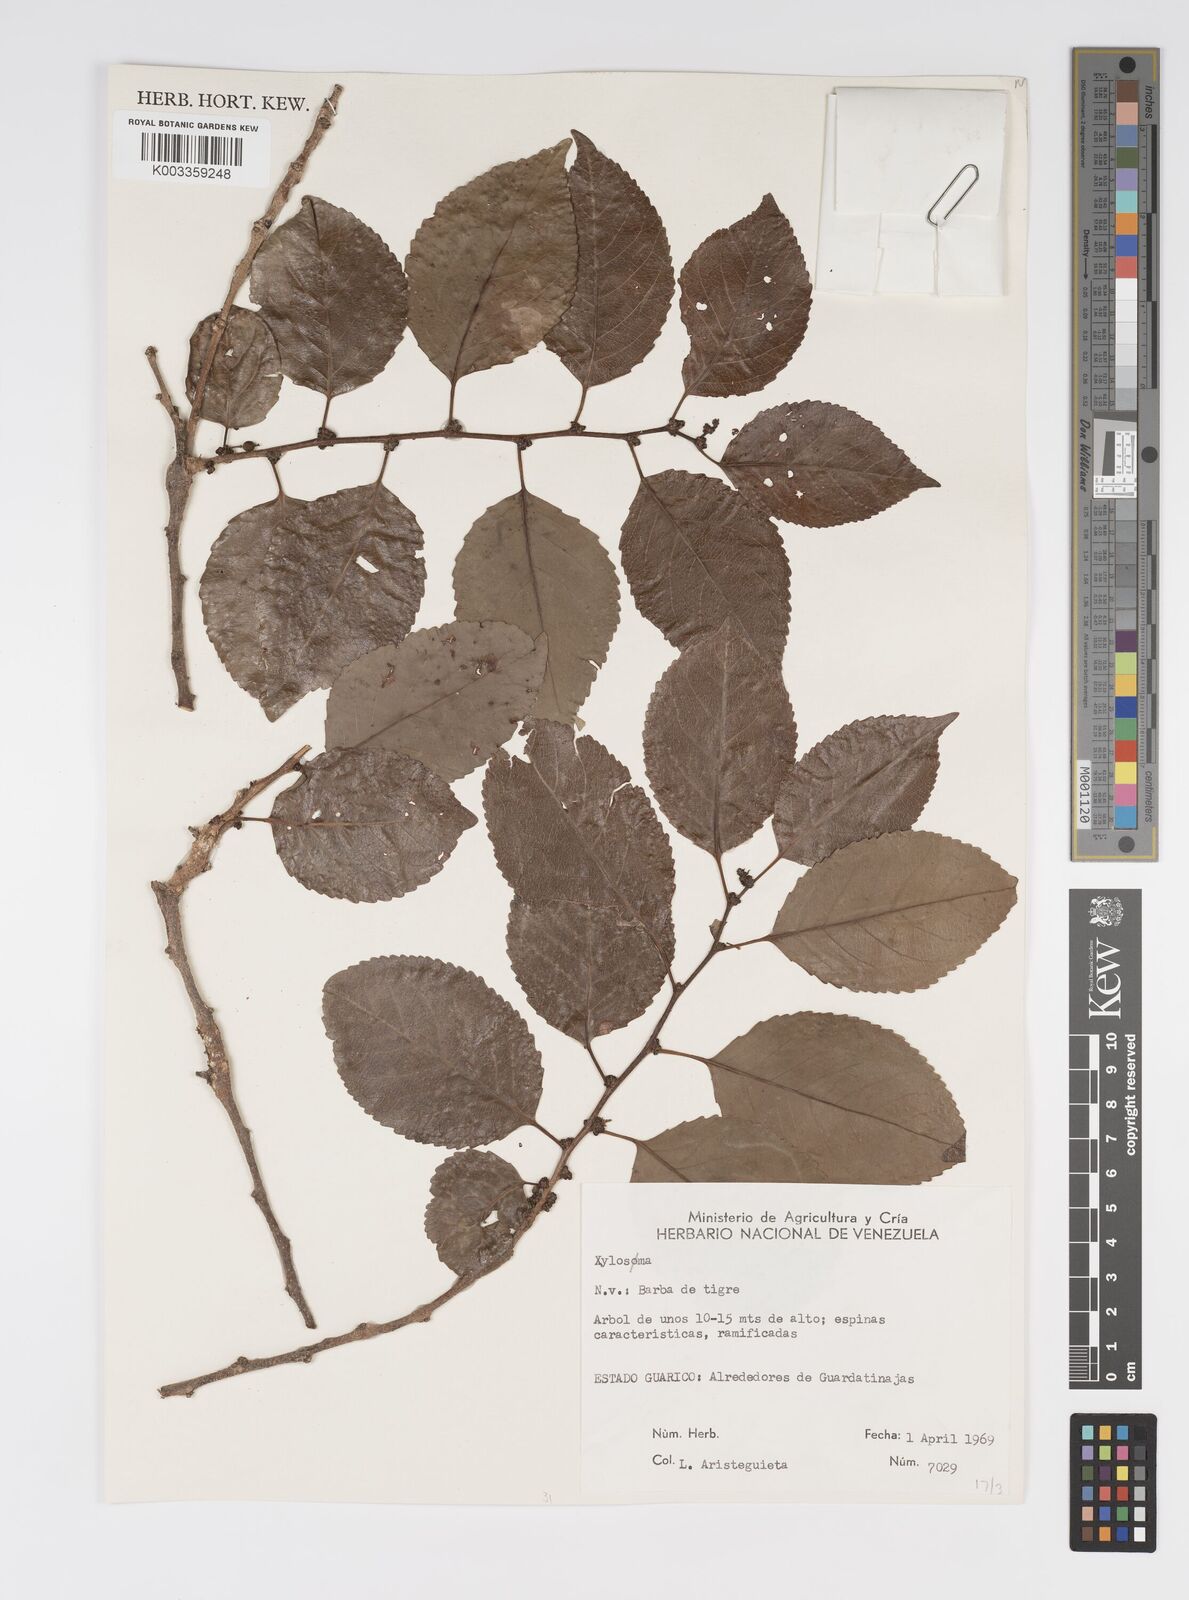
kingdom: Plantae
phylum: Tracheophyta
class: Magnoliopsida
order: Malpighiales
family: Salicaceae
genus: Xylosma
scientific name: Xylosma
